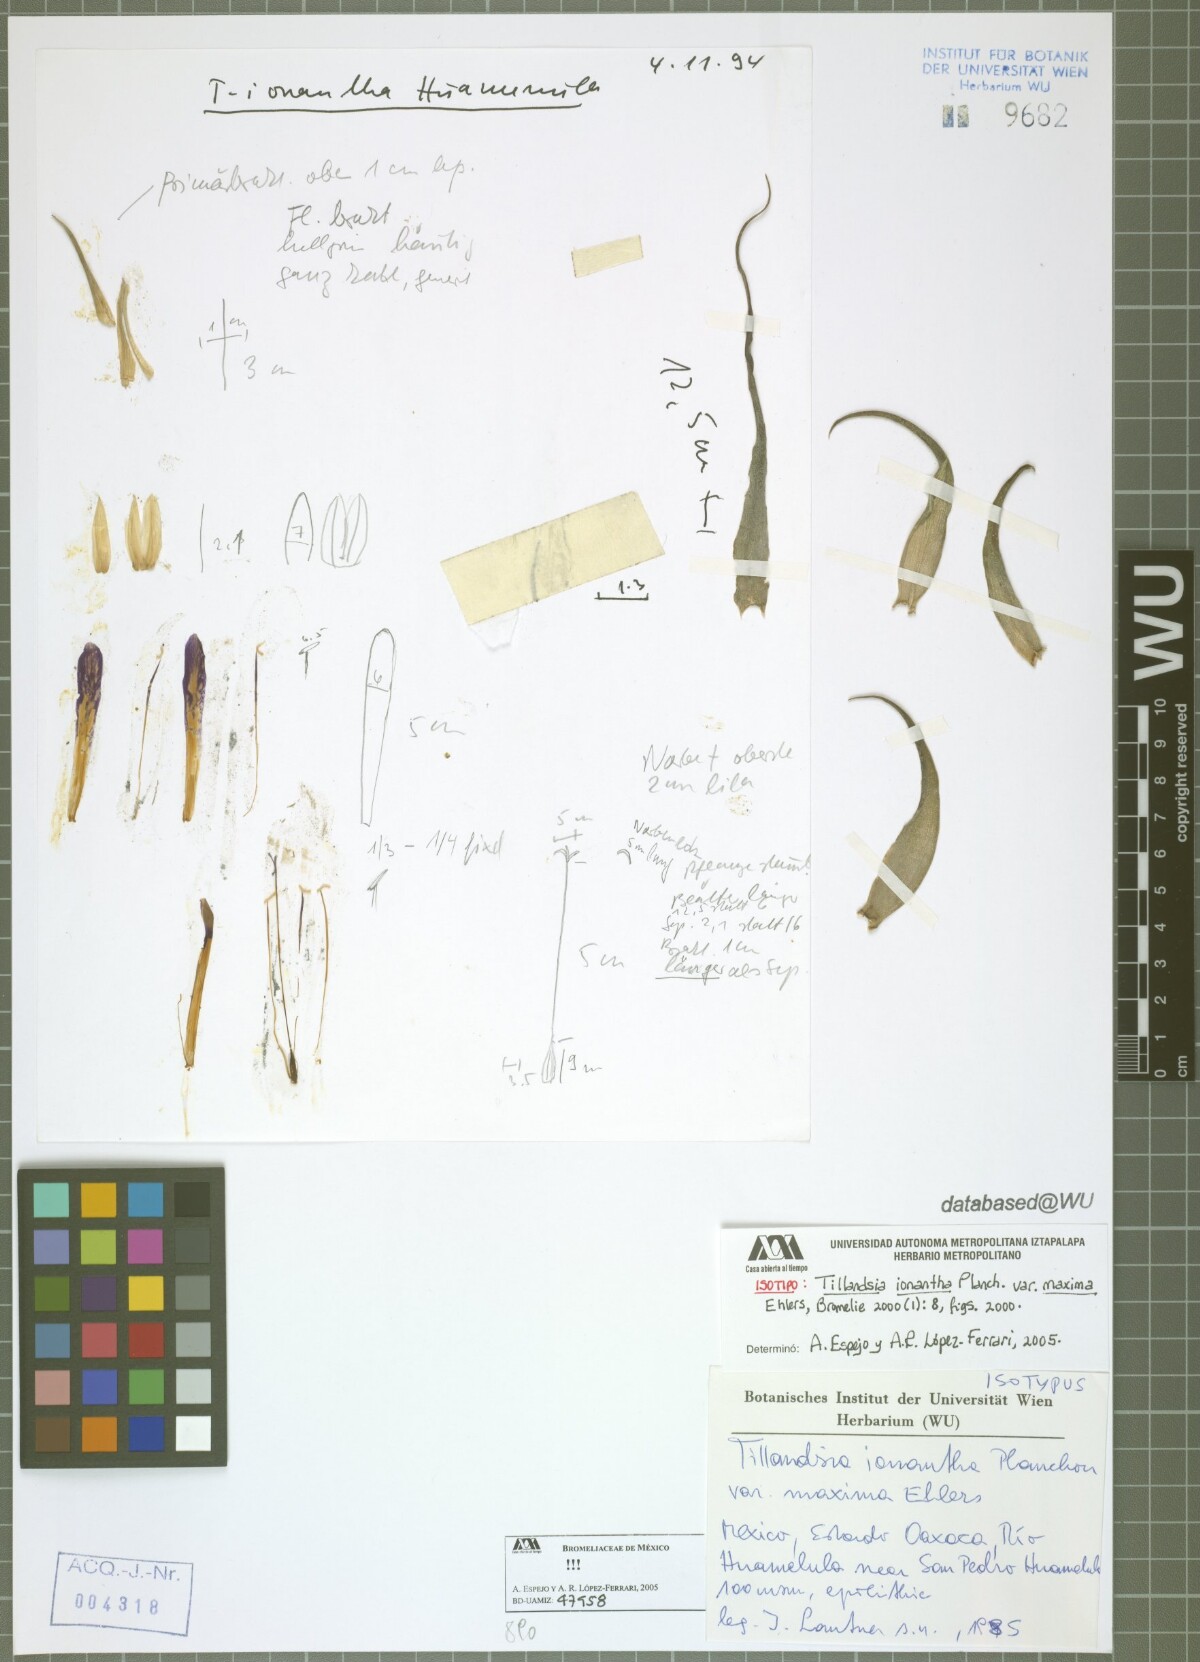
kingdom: Plantae
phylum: Tracheophyta
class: Liliopsida
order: Poales
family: Bromeliaceae
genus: Tillandsia
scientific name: Tillandsia ionantha
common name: Sky plant
